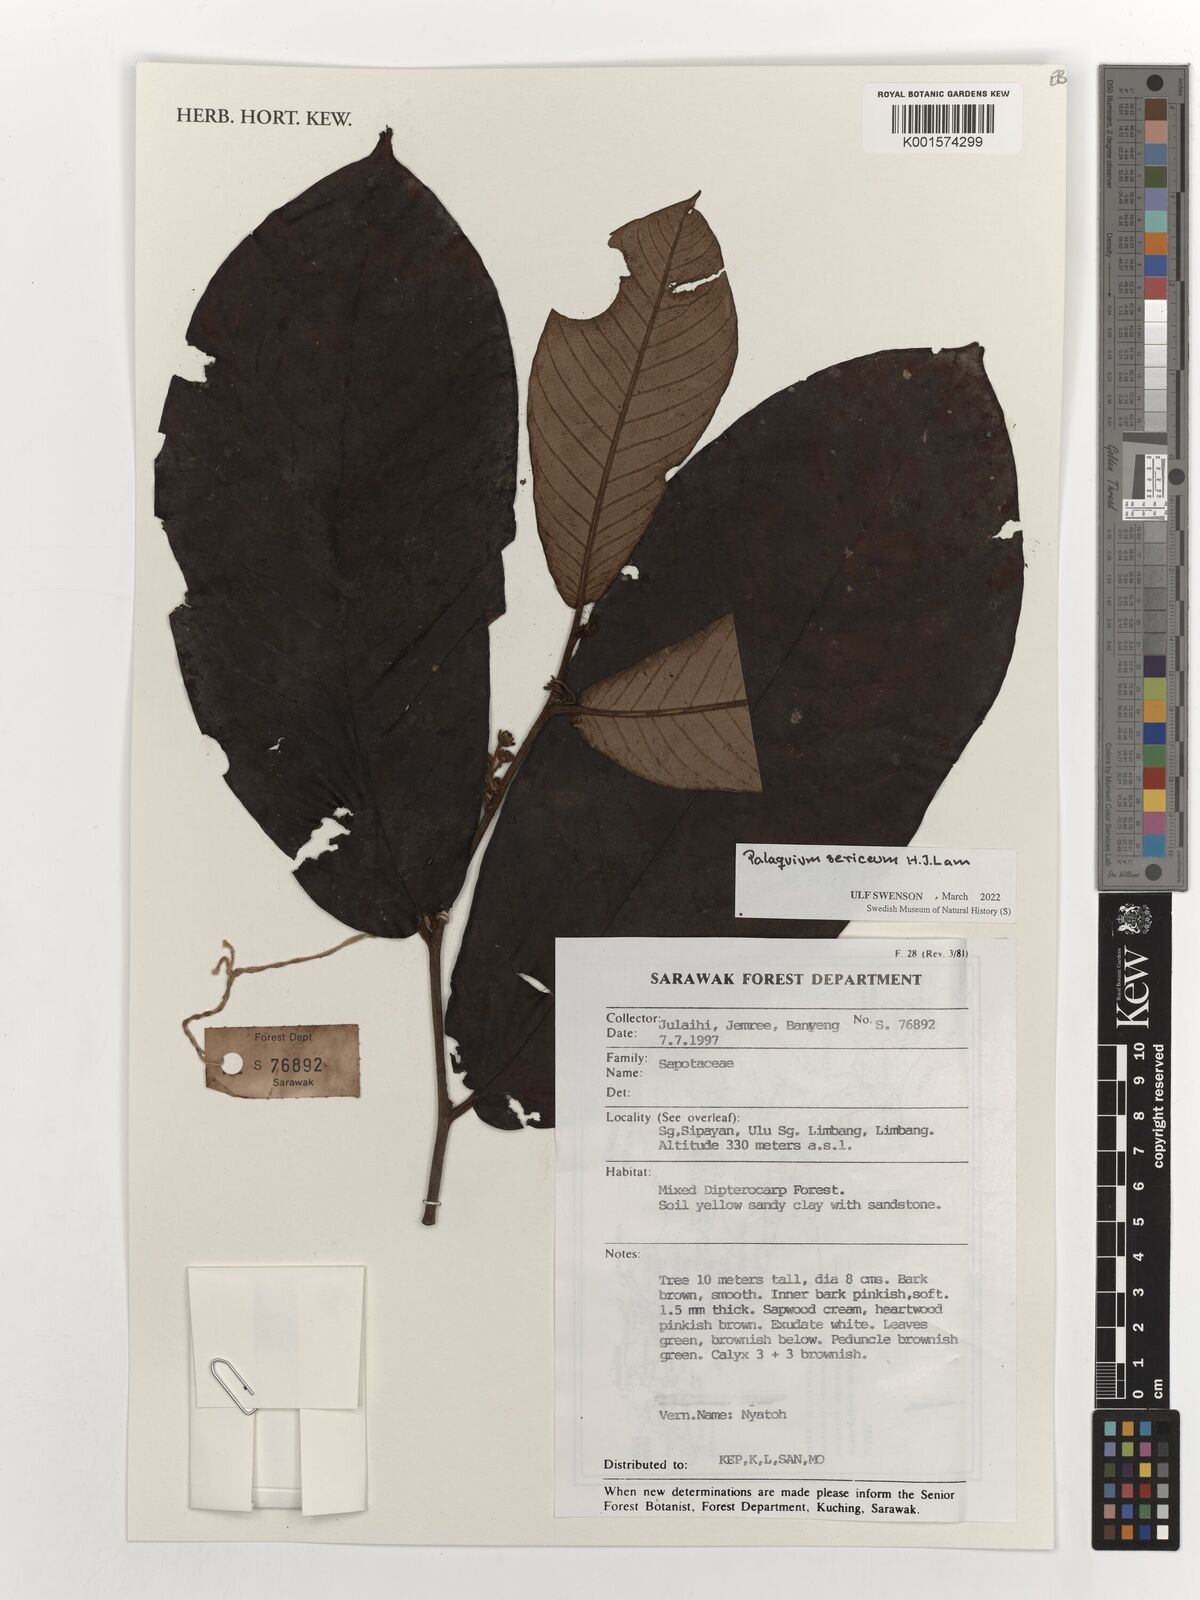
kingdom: Plantae
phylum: Tracheophyta
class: Magnoliopsida
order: Ericales
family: Sapotaceae
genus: Palaquium
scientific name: Palaquium sericeum
